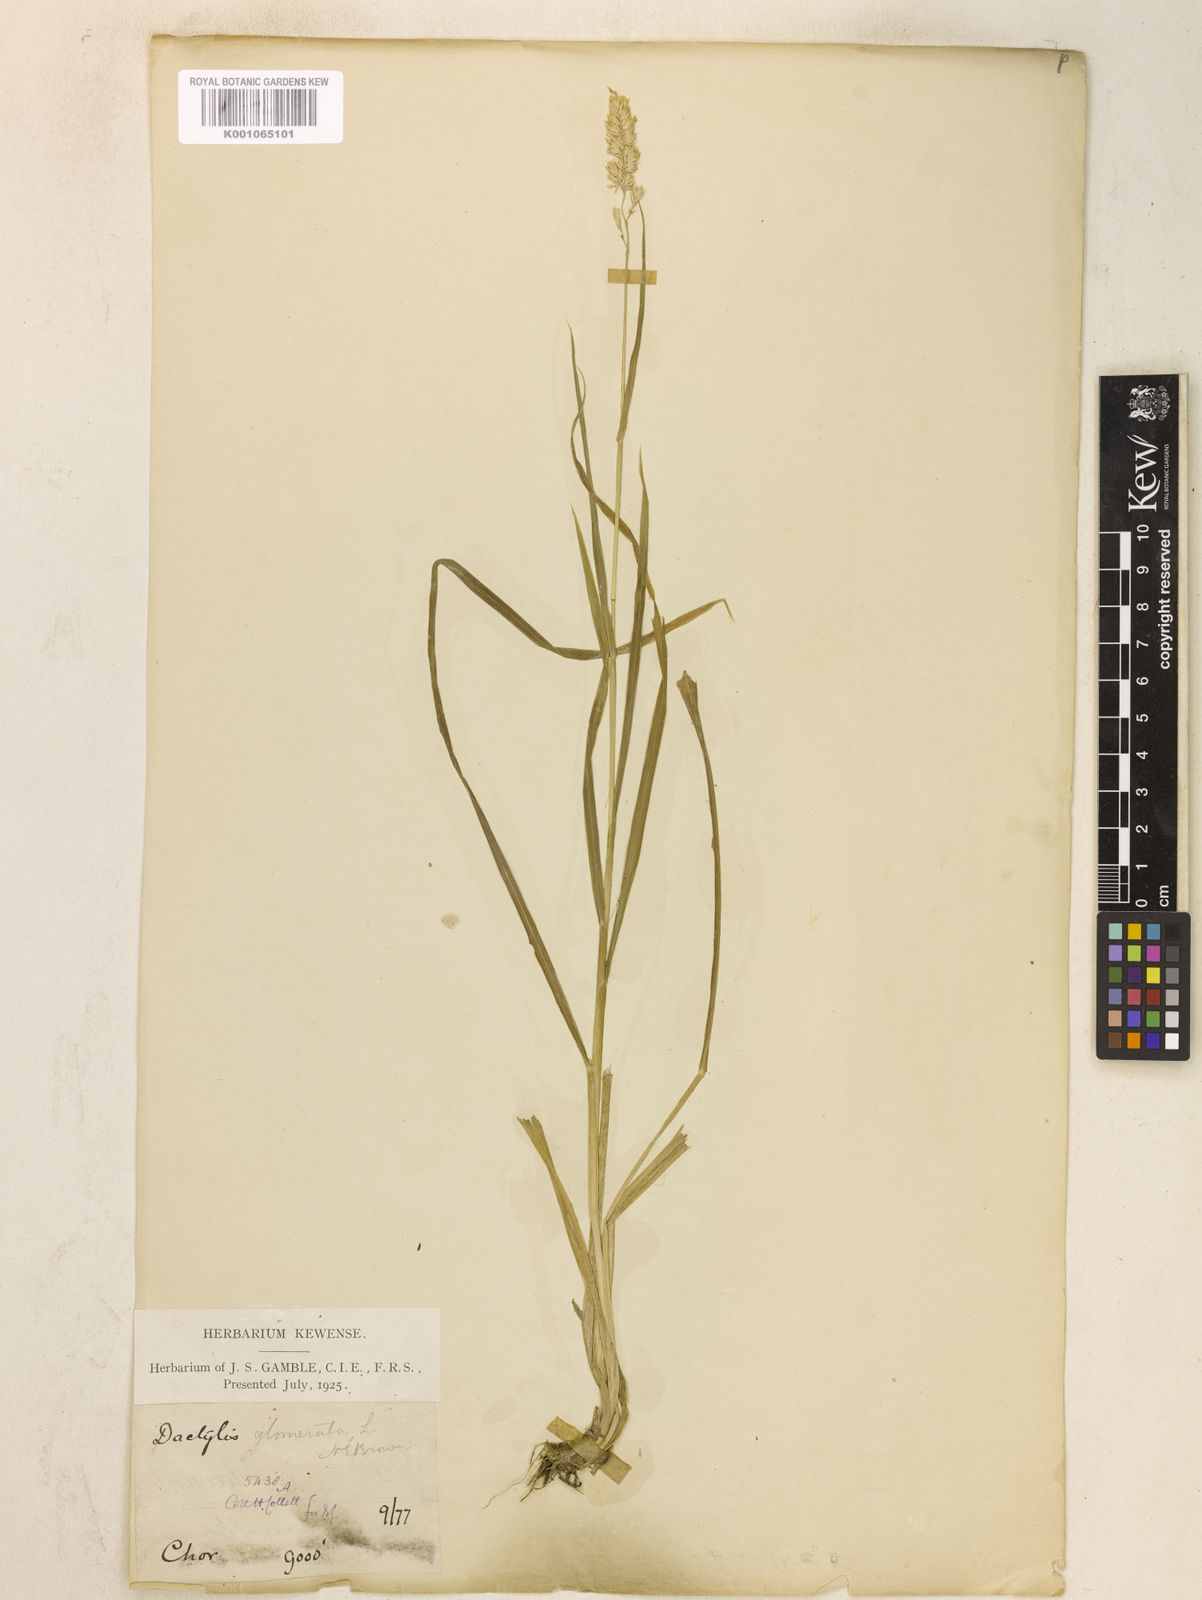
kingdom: Plantae
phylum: Tracheophyta
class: Liliopsida
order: Poales
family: Poaceae
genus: Dactylis
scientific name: Dactylis glomerata
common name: Orchardgrass
